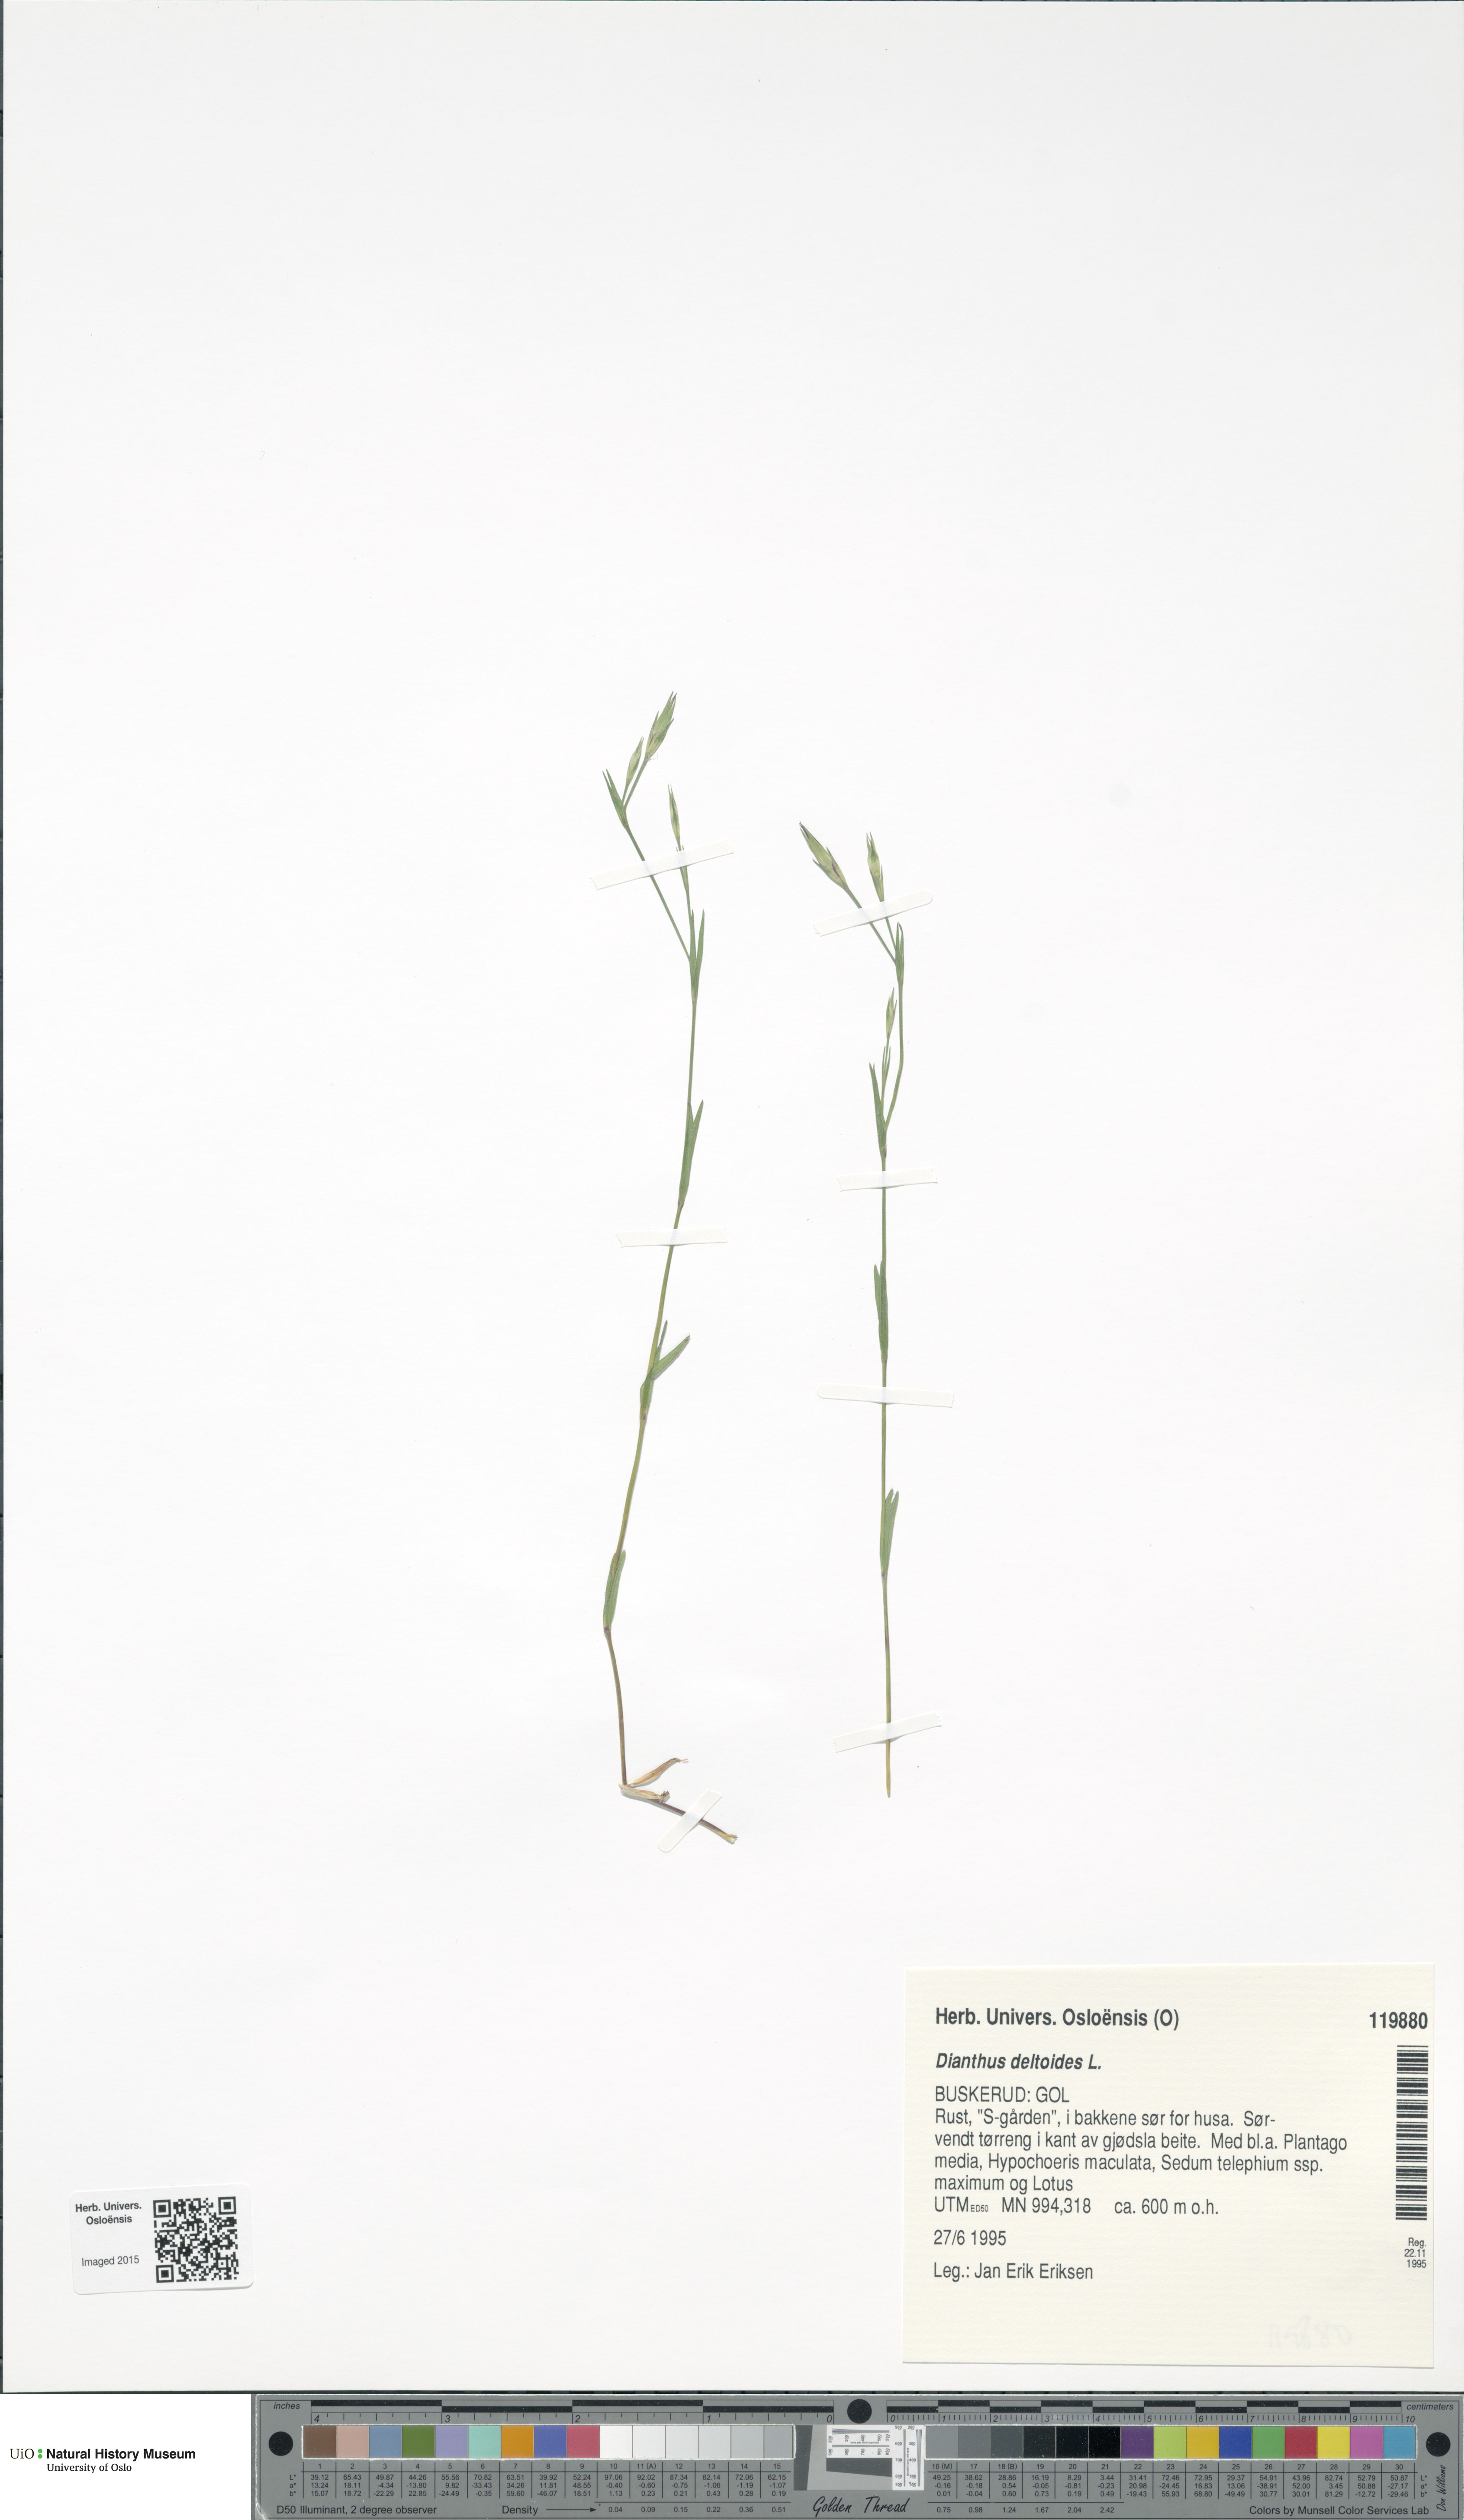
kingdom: Plantae
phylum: Tracheophyta
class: Magnoliopsida
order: Caryophyllales
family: Caryophyllaceae
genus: Dianthus
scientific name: Dianthus deltoides
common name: Maiden pink
